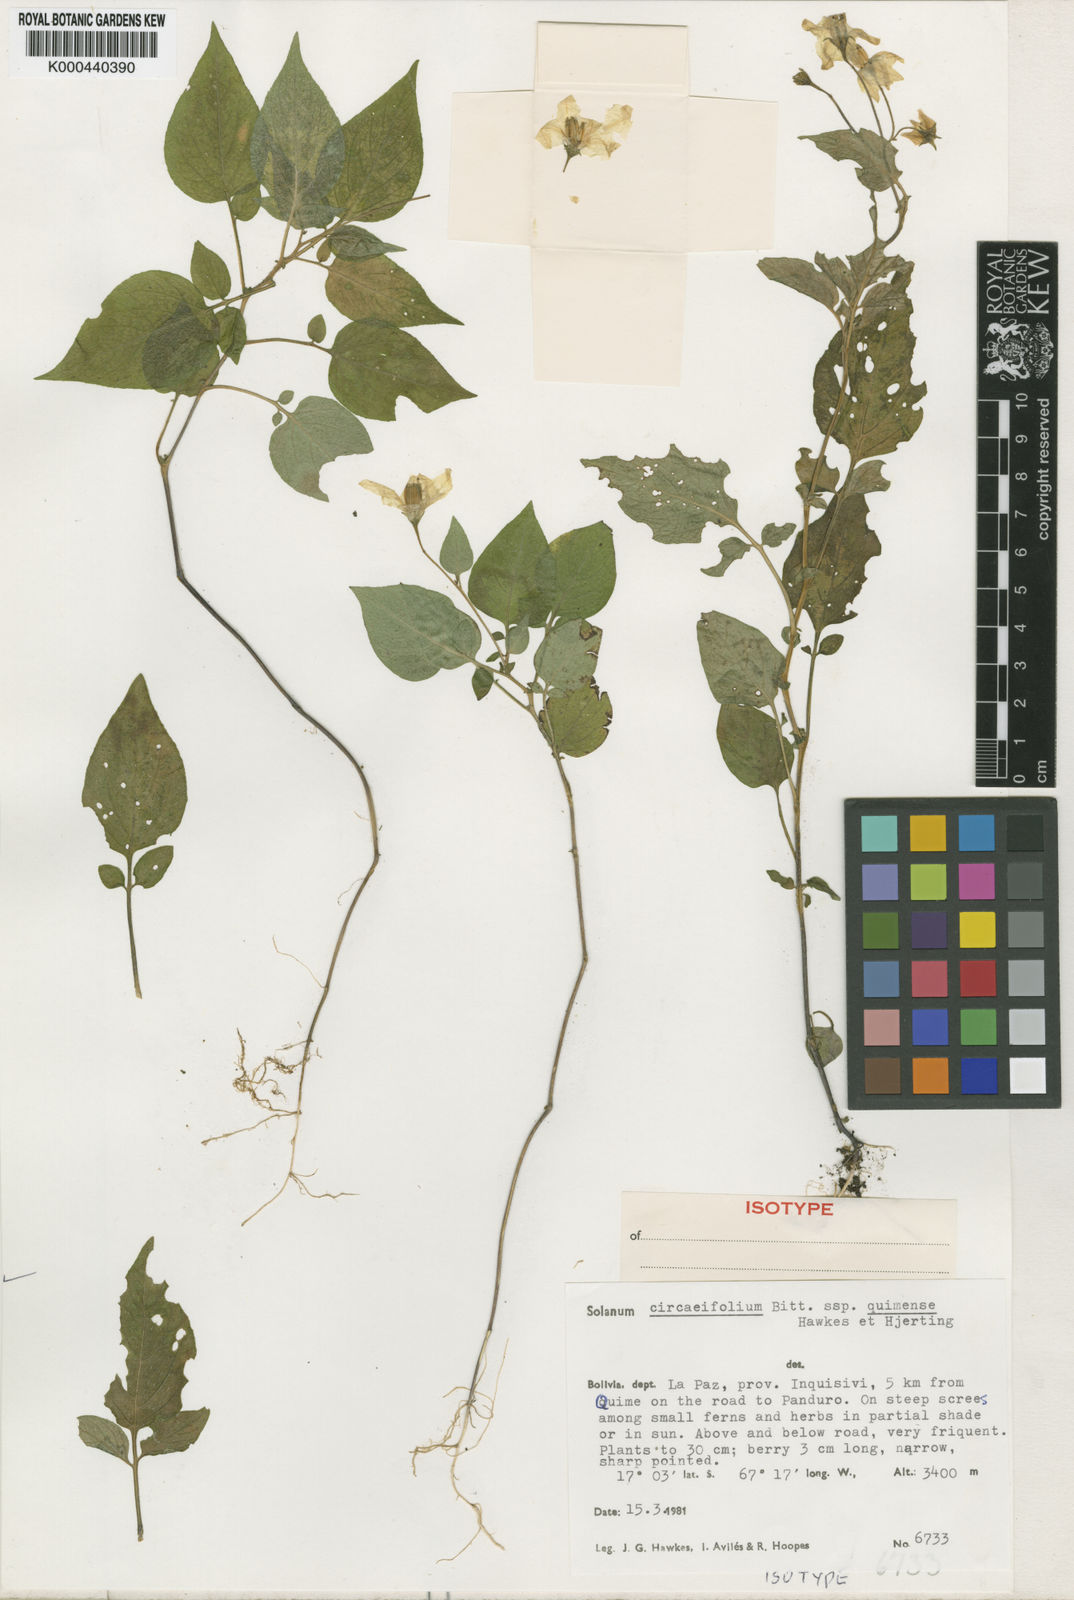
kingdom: Plantae
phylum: Tracheophyta
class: Magnoliopsida
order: Solanales
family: Solanaceae
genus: Solanum
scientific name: Solanum stipuloideum
